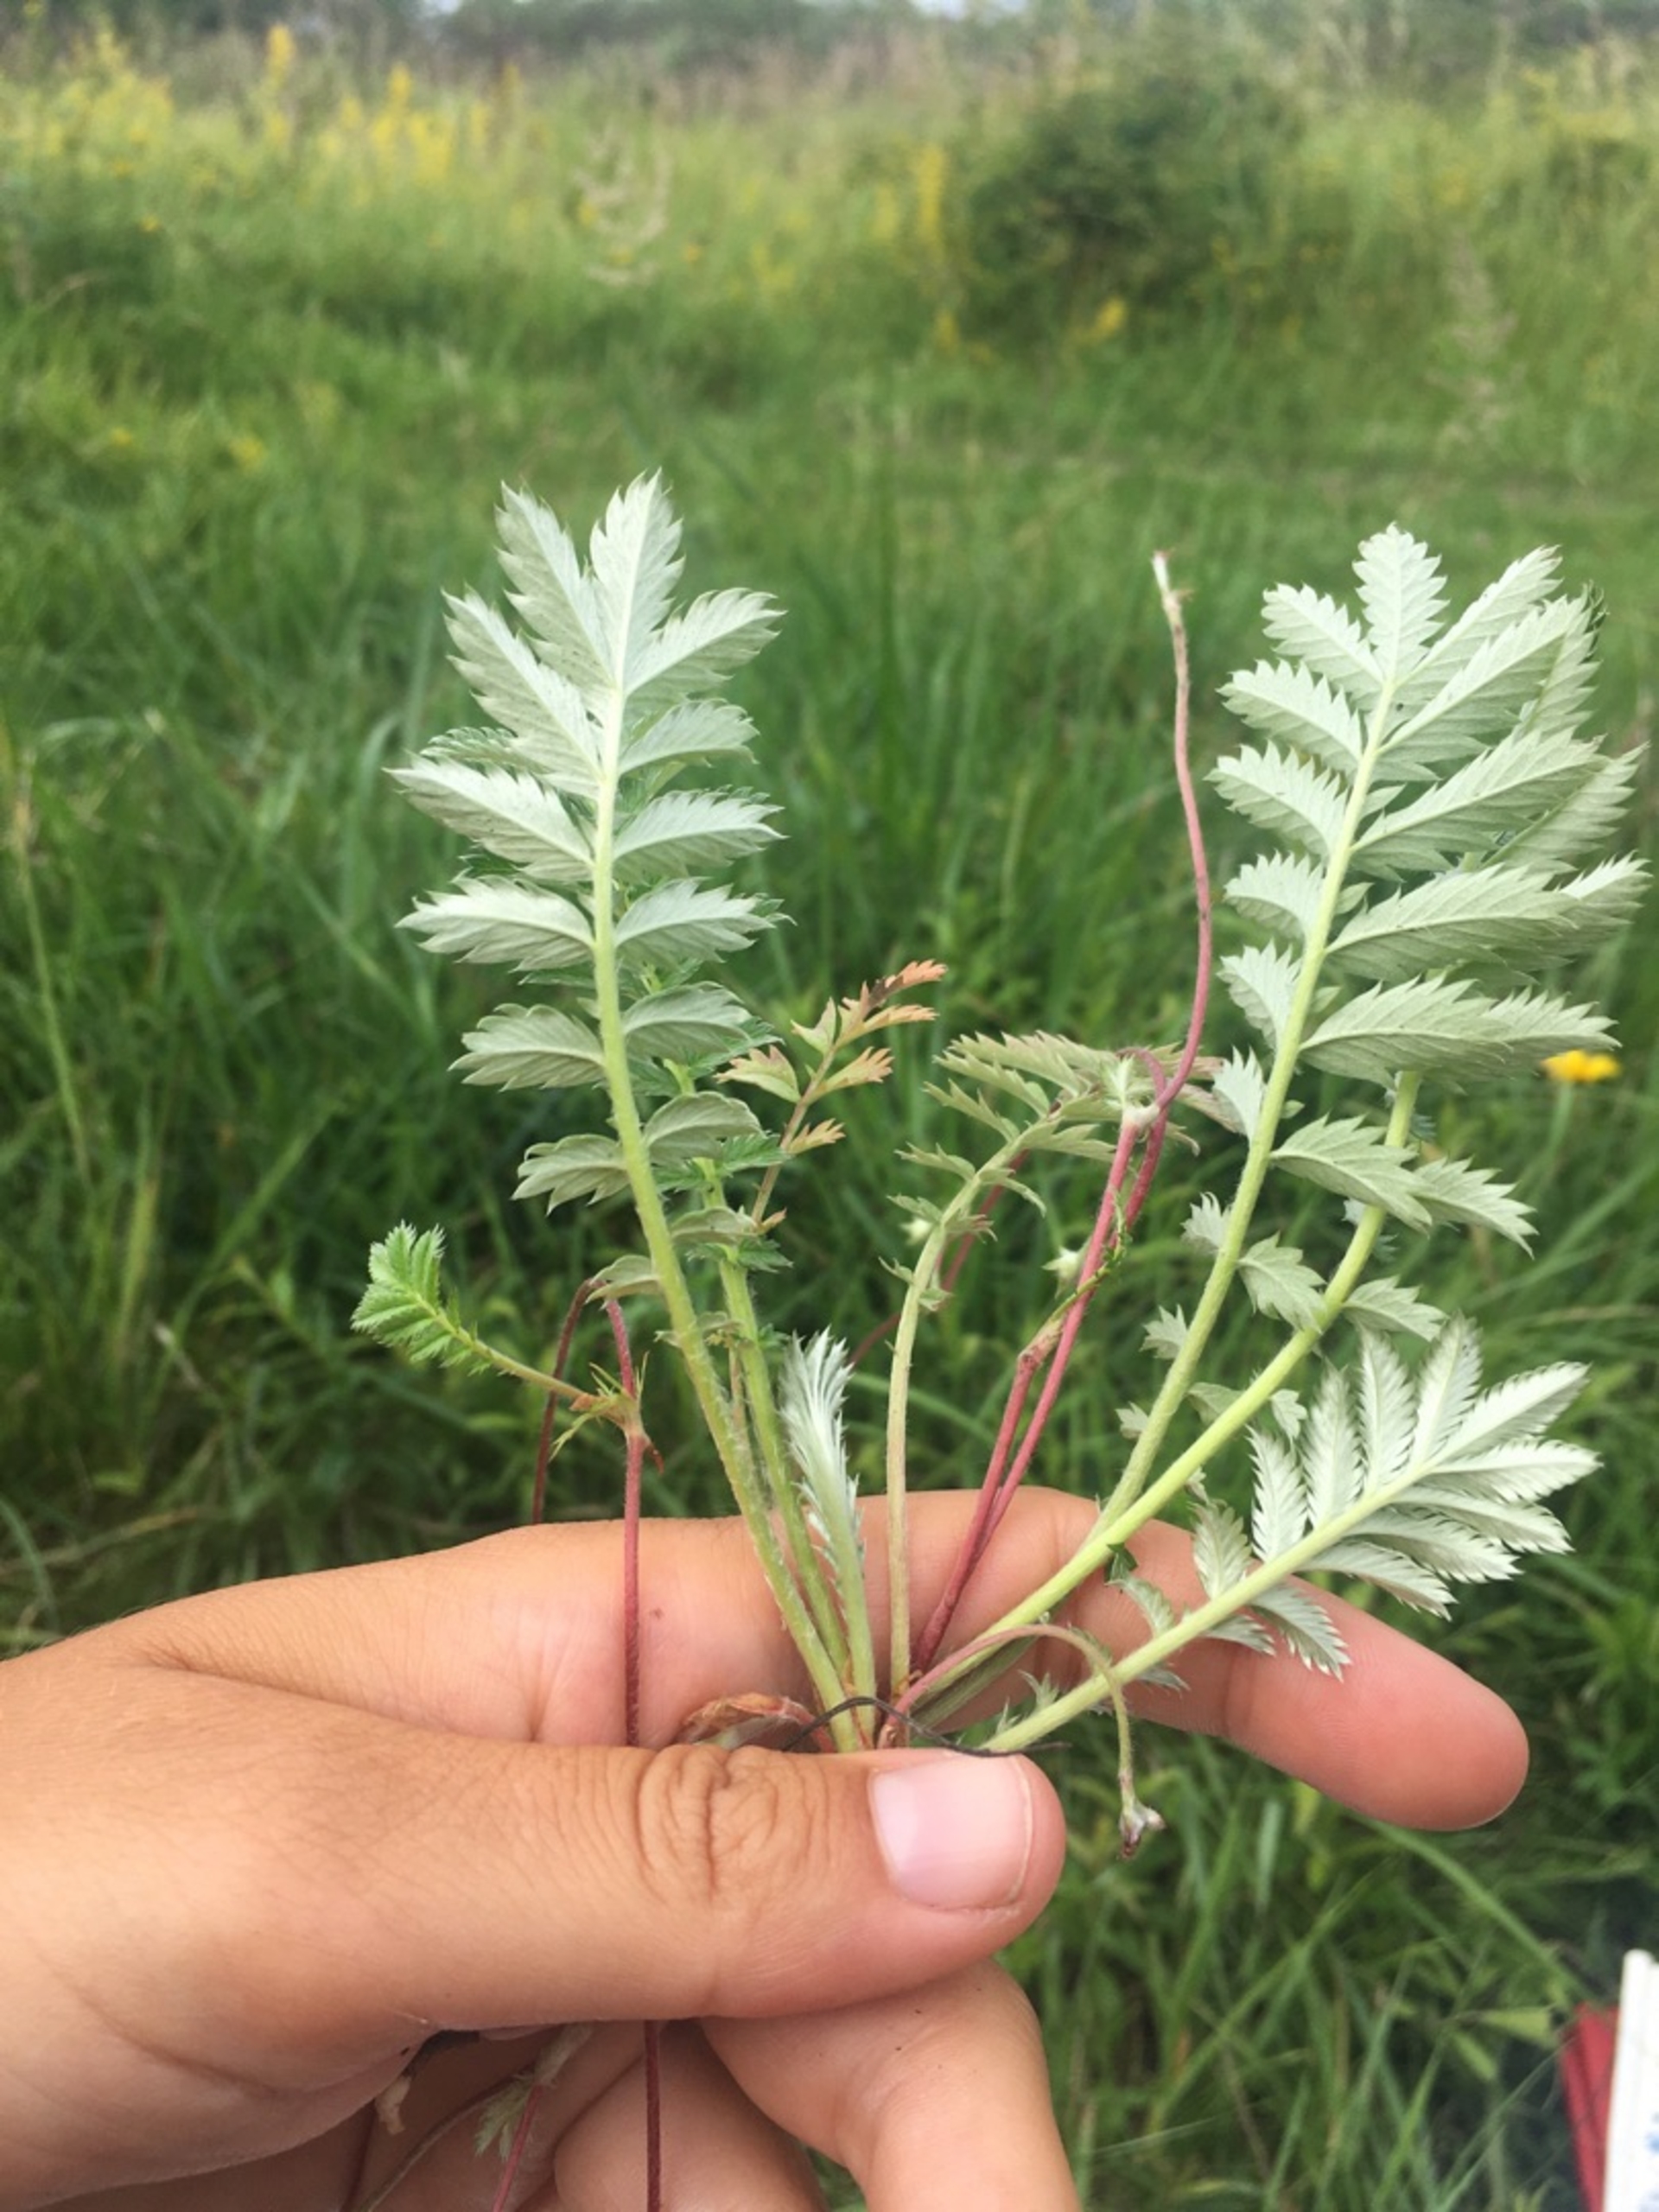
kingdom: Plantae
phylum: Tracheophyta
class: Magnoliopsida
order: Rosales
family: Rosaceae
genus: Argentina
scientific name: Argentina anserina
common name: Gåsepotentil
